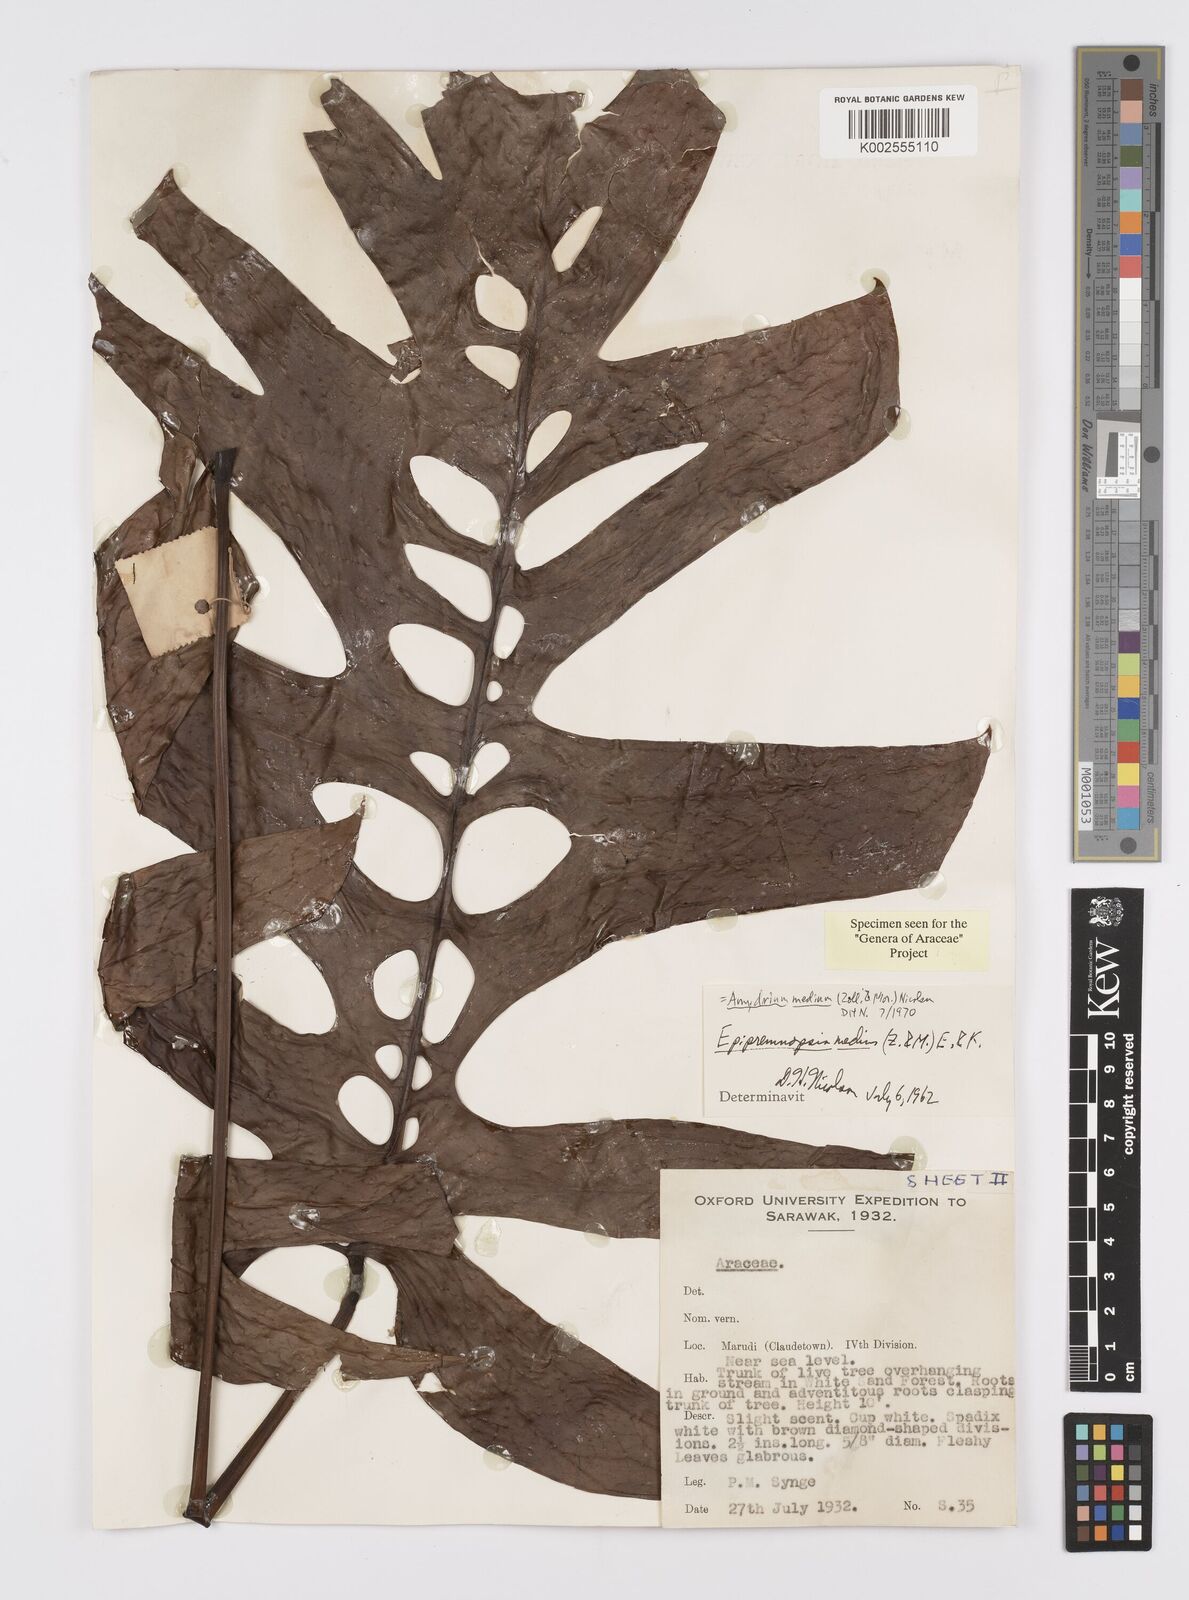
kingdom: Plantae
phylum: Tracheophyta
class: Liliopsida
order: Alismatales
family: Araceae
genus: Amydrium
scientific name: Amydrium medium
